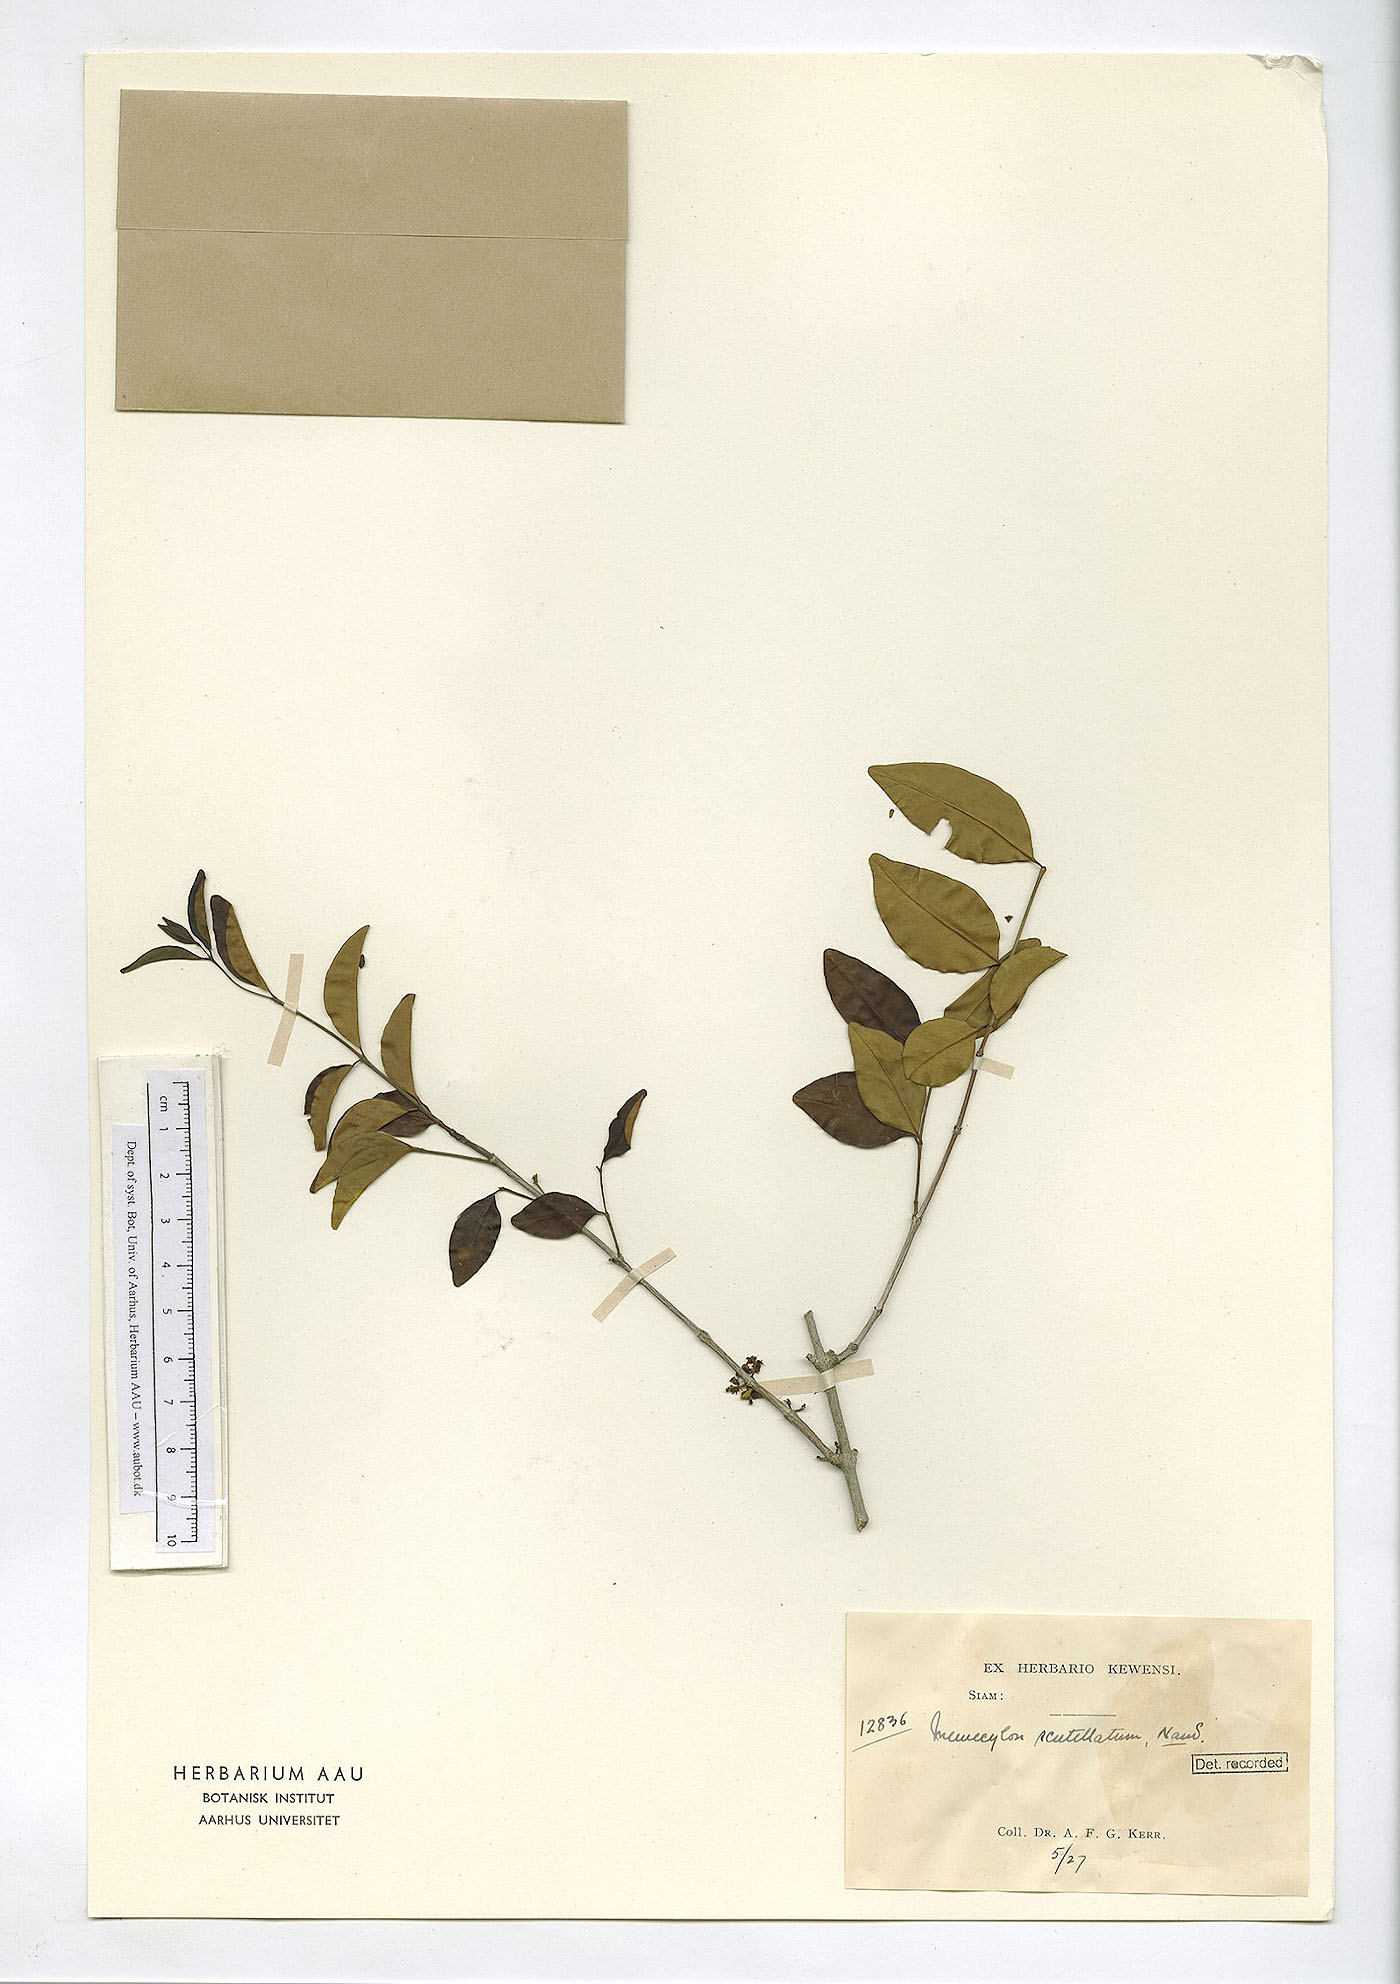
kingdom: Plantae
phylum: Tracheophyta
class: Magnoliopsida
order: Myrtales
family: Melastomataceae
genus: Memecylon
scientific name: Memecylon scutellatum
